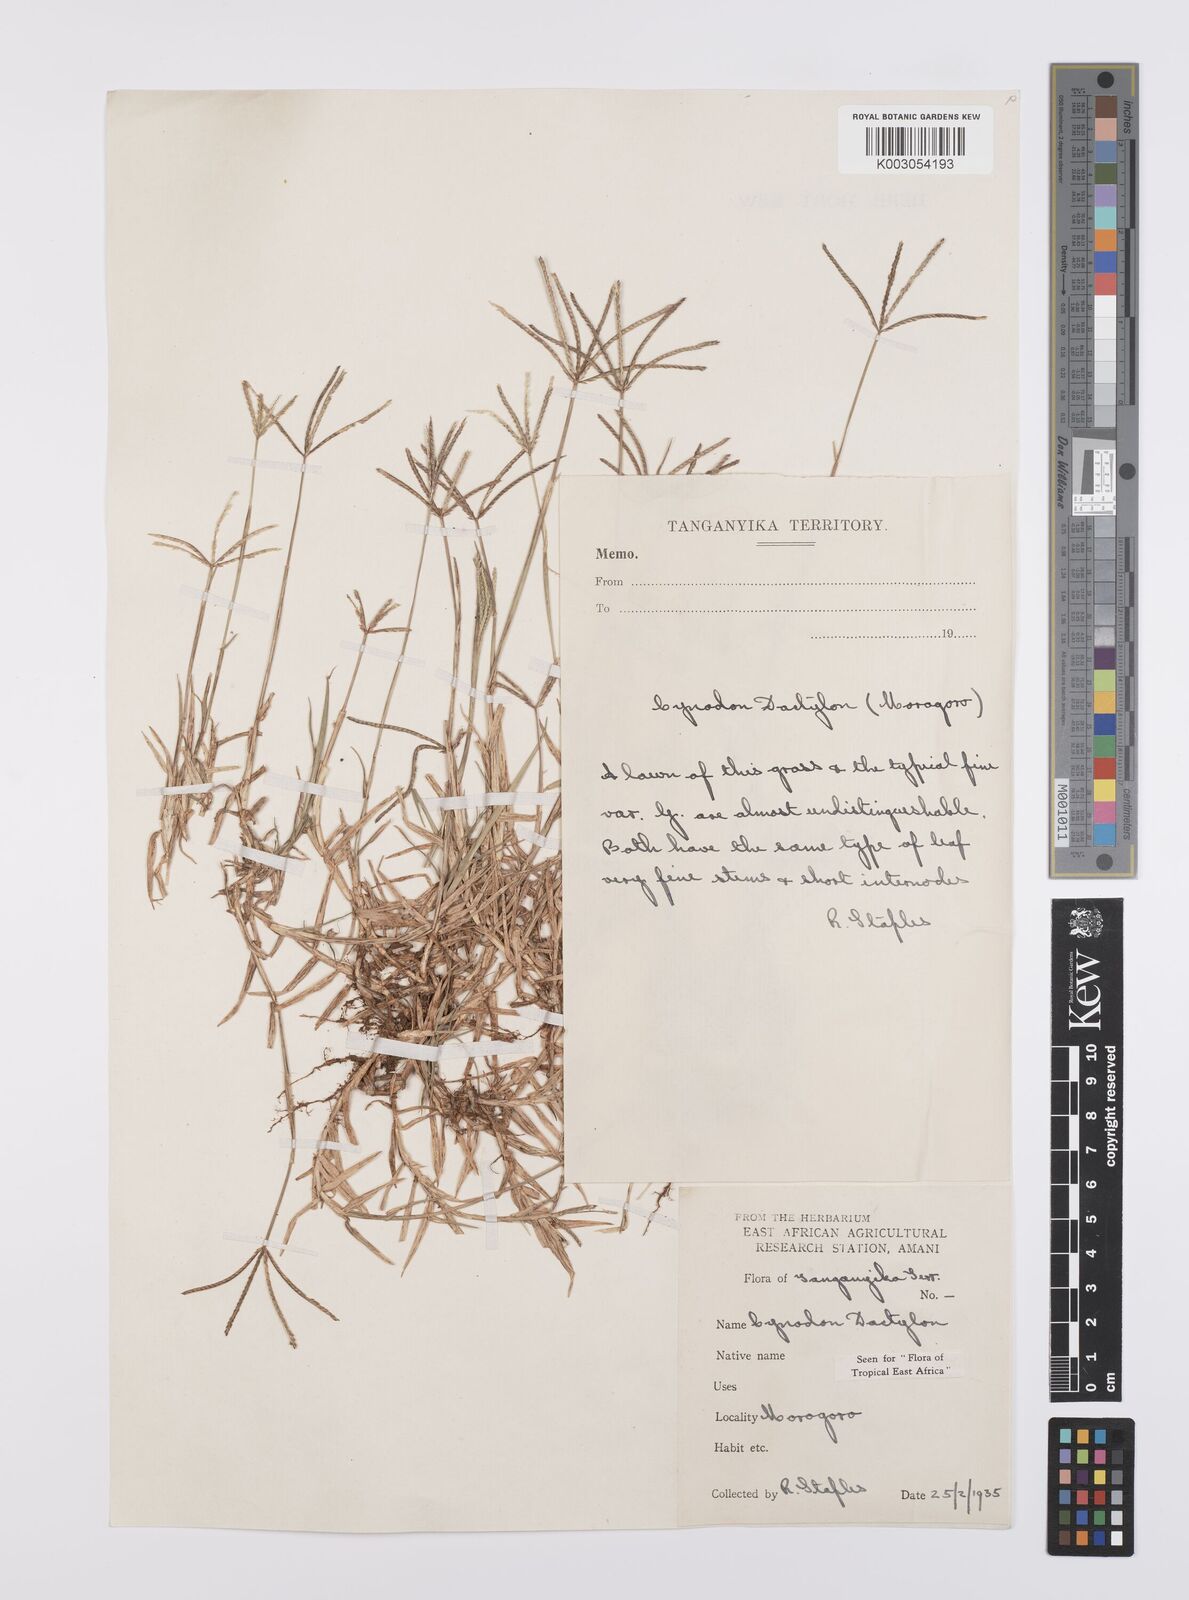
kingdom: Plantae
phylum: Tracheophyta
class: Liliopsida
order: Poales
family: Poaceae
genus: Cynodon
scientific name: Cynodon dactylon
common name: Bermuda grass
